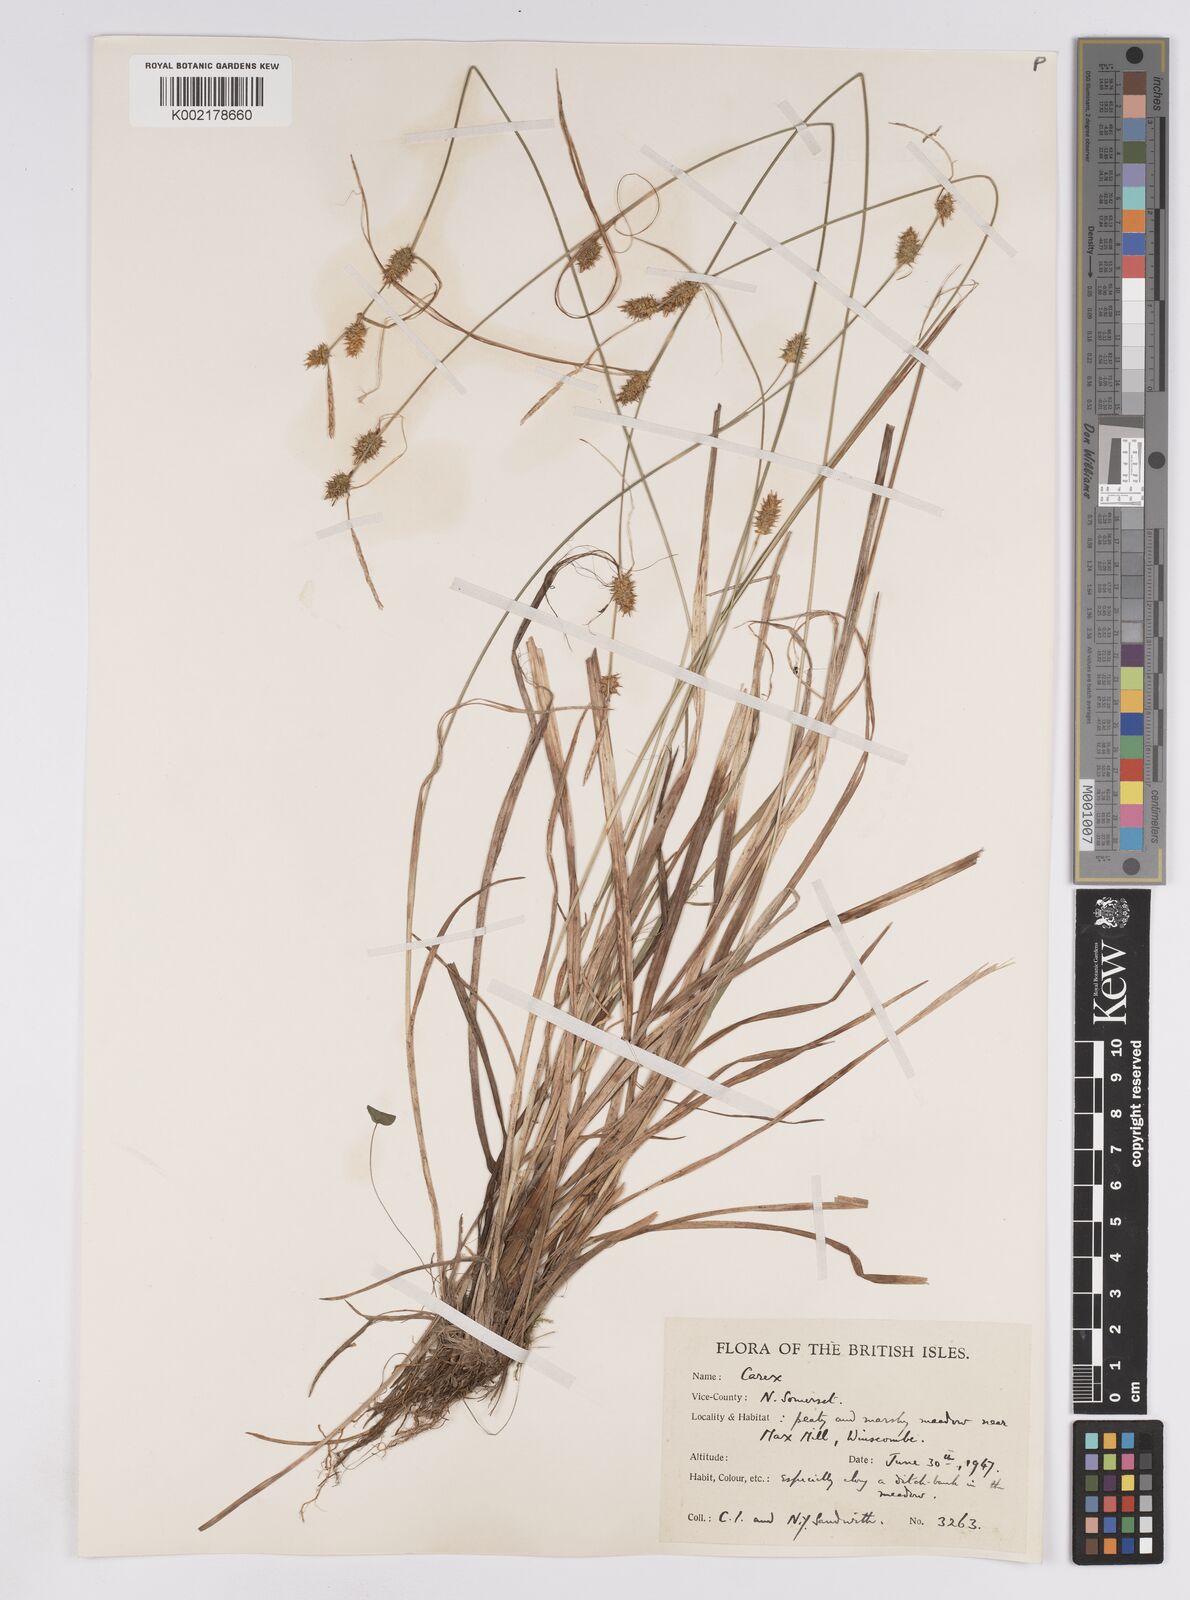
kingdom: Plantae
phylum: Tracheophyta
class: Liliopsida
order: Poales
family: Cyperaceae
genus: Carex
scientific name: Carex lepidocarpa
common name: Long-stalked yellow-sedge
